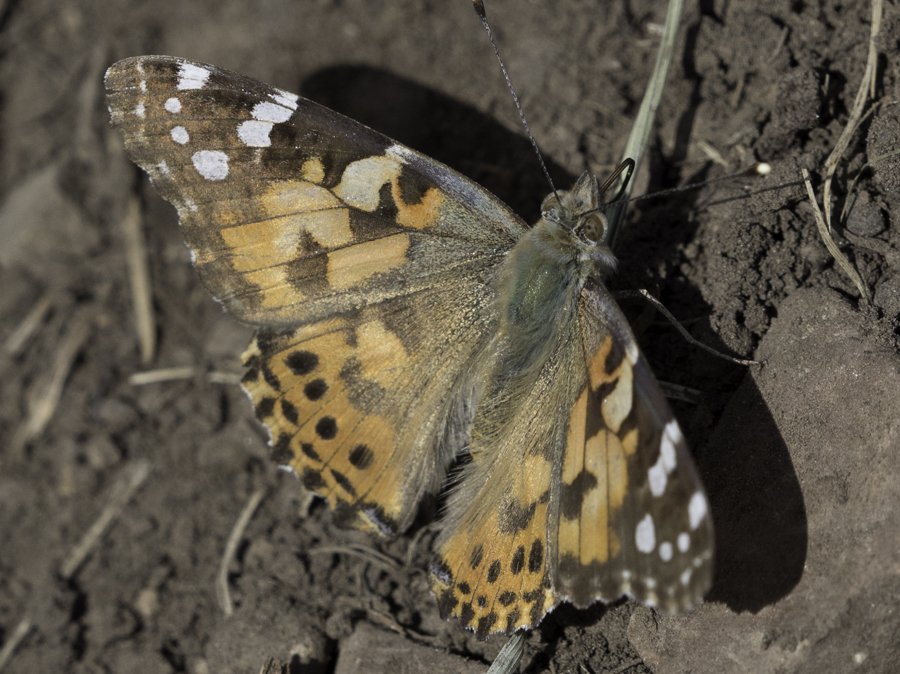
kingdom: Animalia
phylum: Arthropoda
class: Insecta
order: Lepidoptera
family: Nymphalidae
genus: Vanessa
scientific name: Vanessa cardui
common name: Painted Lady
